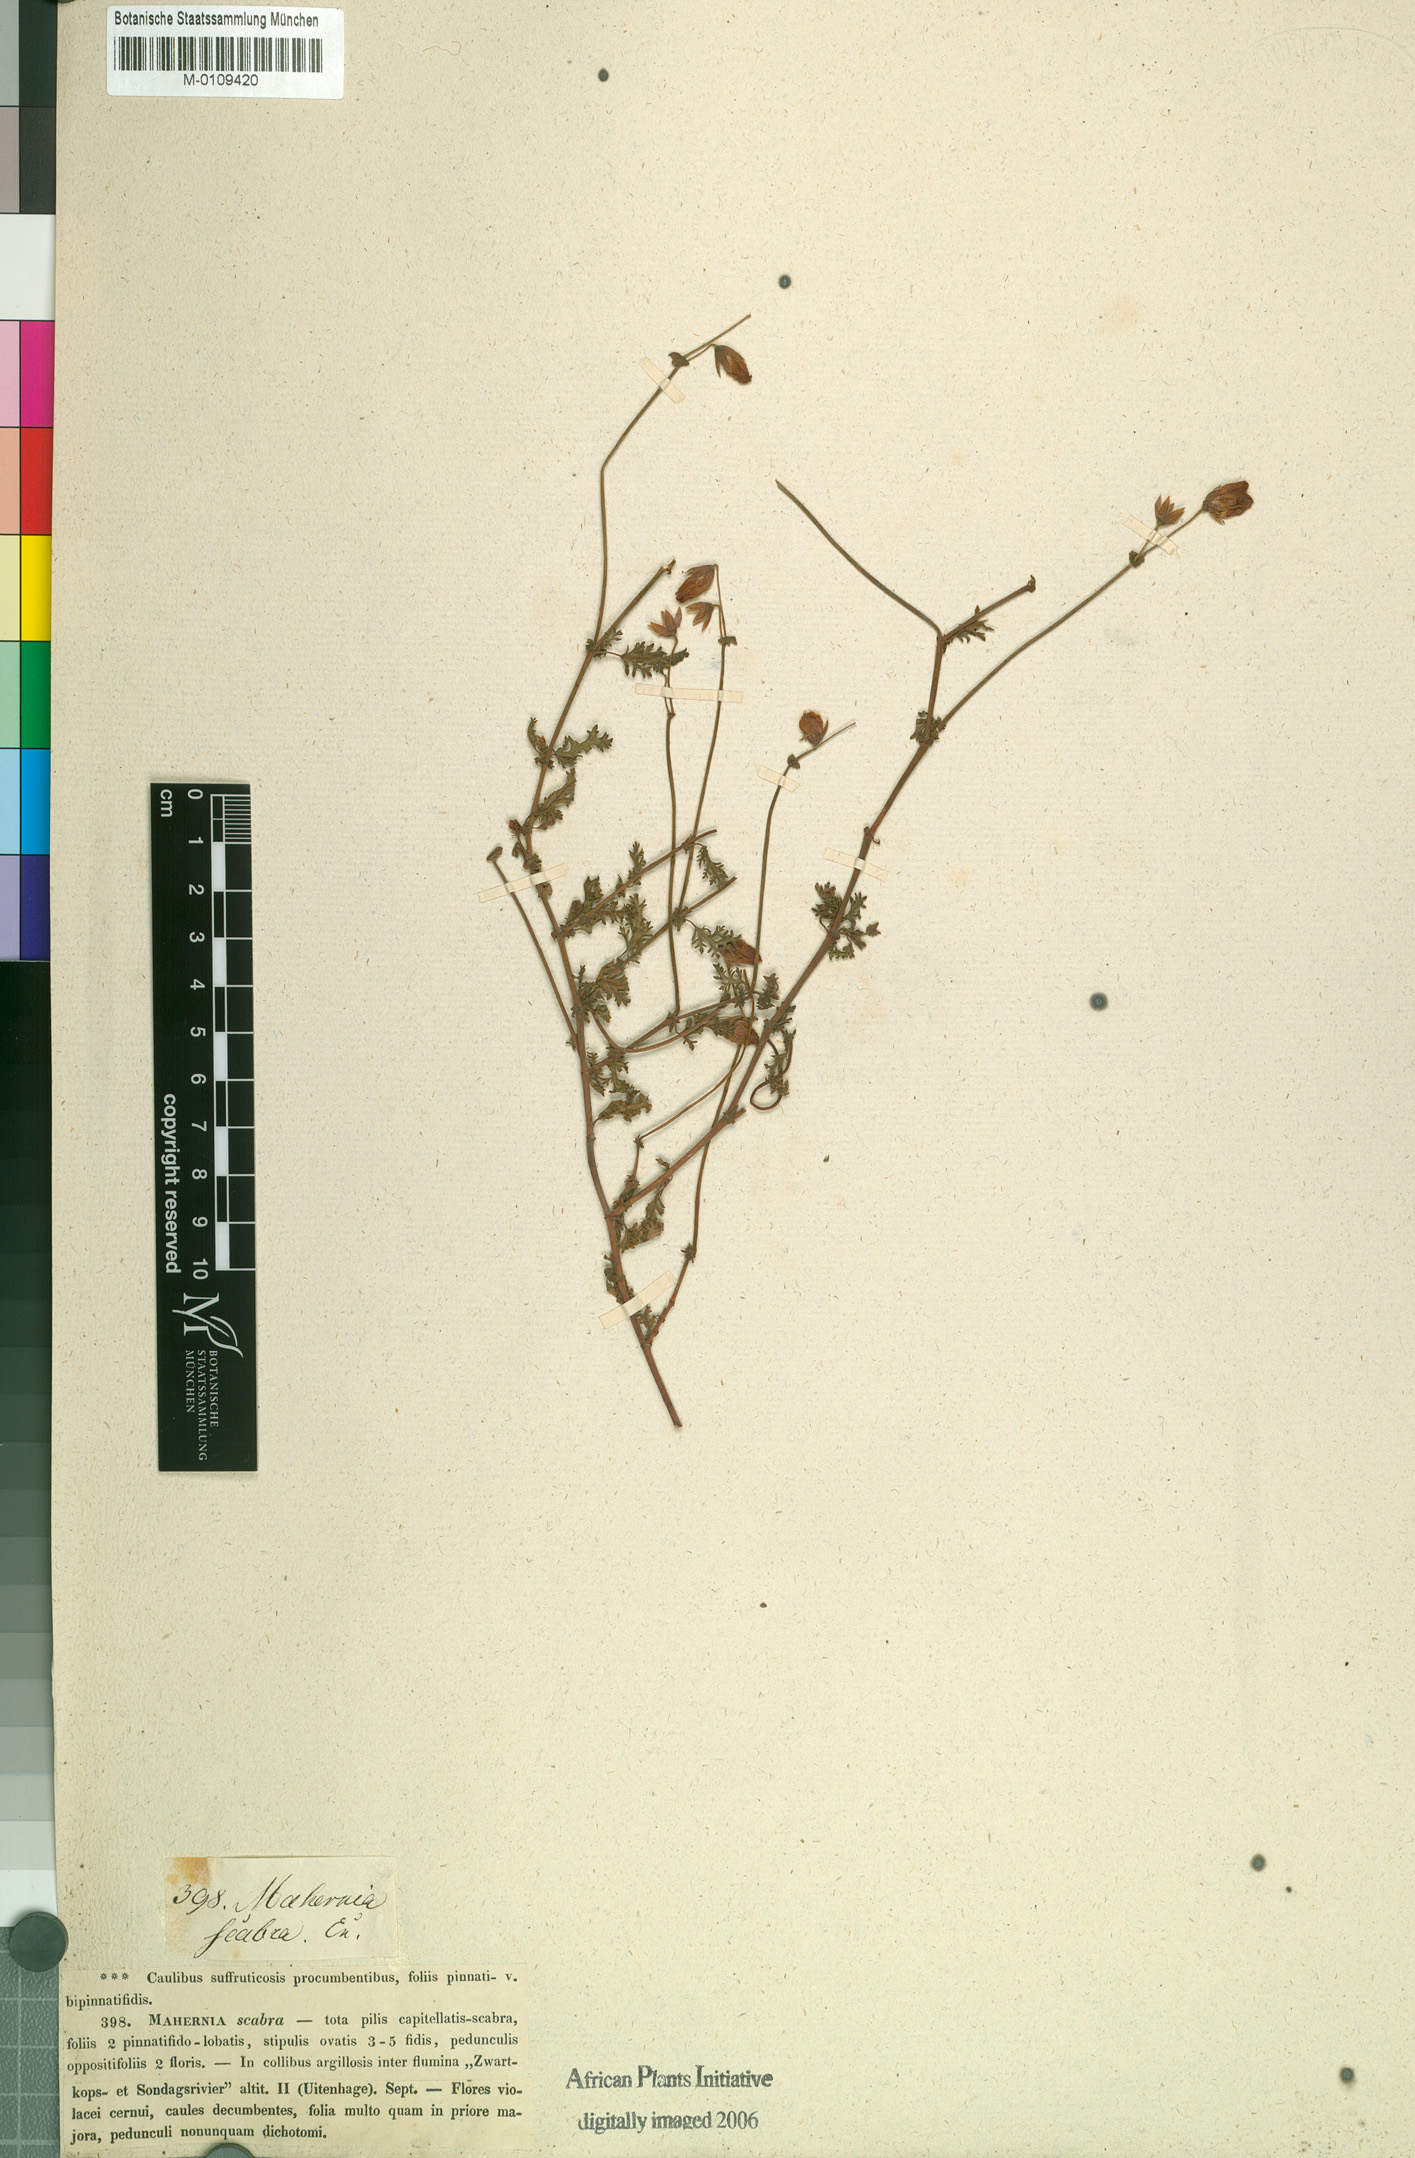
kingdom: Plantae
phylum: Tracheophyta
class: Magnoliopsida
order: Malvales
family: Malvaceae
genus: Hermannia
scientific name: Hermannia lacera
